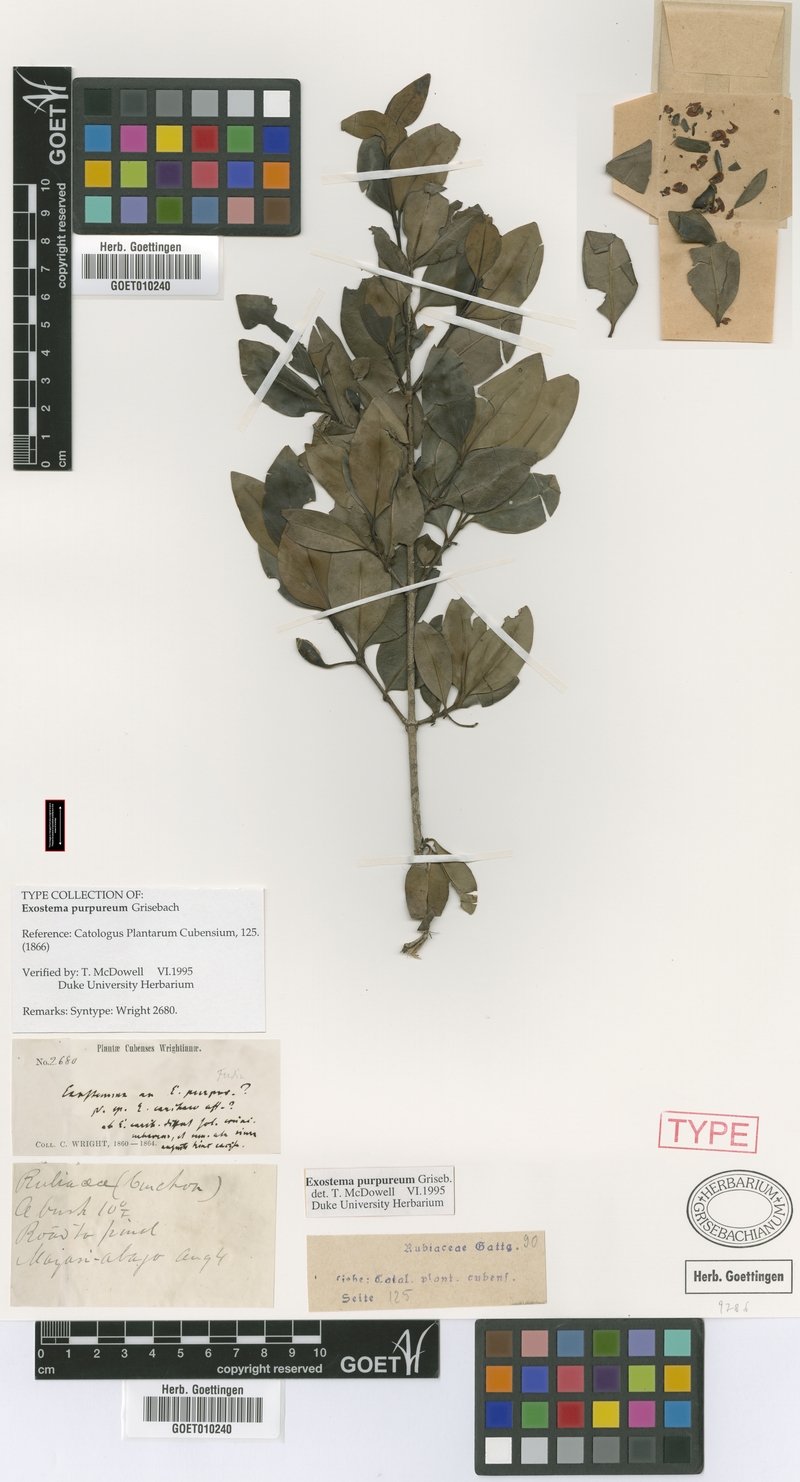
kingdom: Plantae
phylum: Tracheophyta
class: Magnoliopsida
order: Gentianales
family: Rubiaceae
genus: Exostema
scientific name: Exostema purpureum
